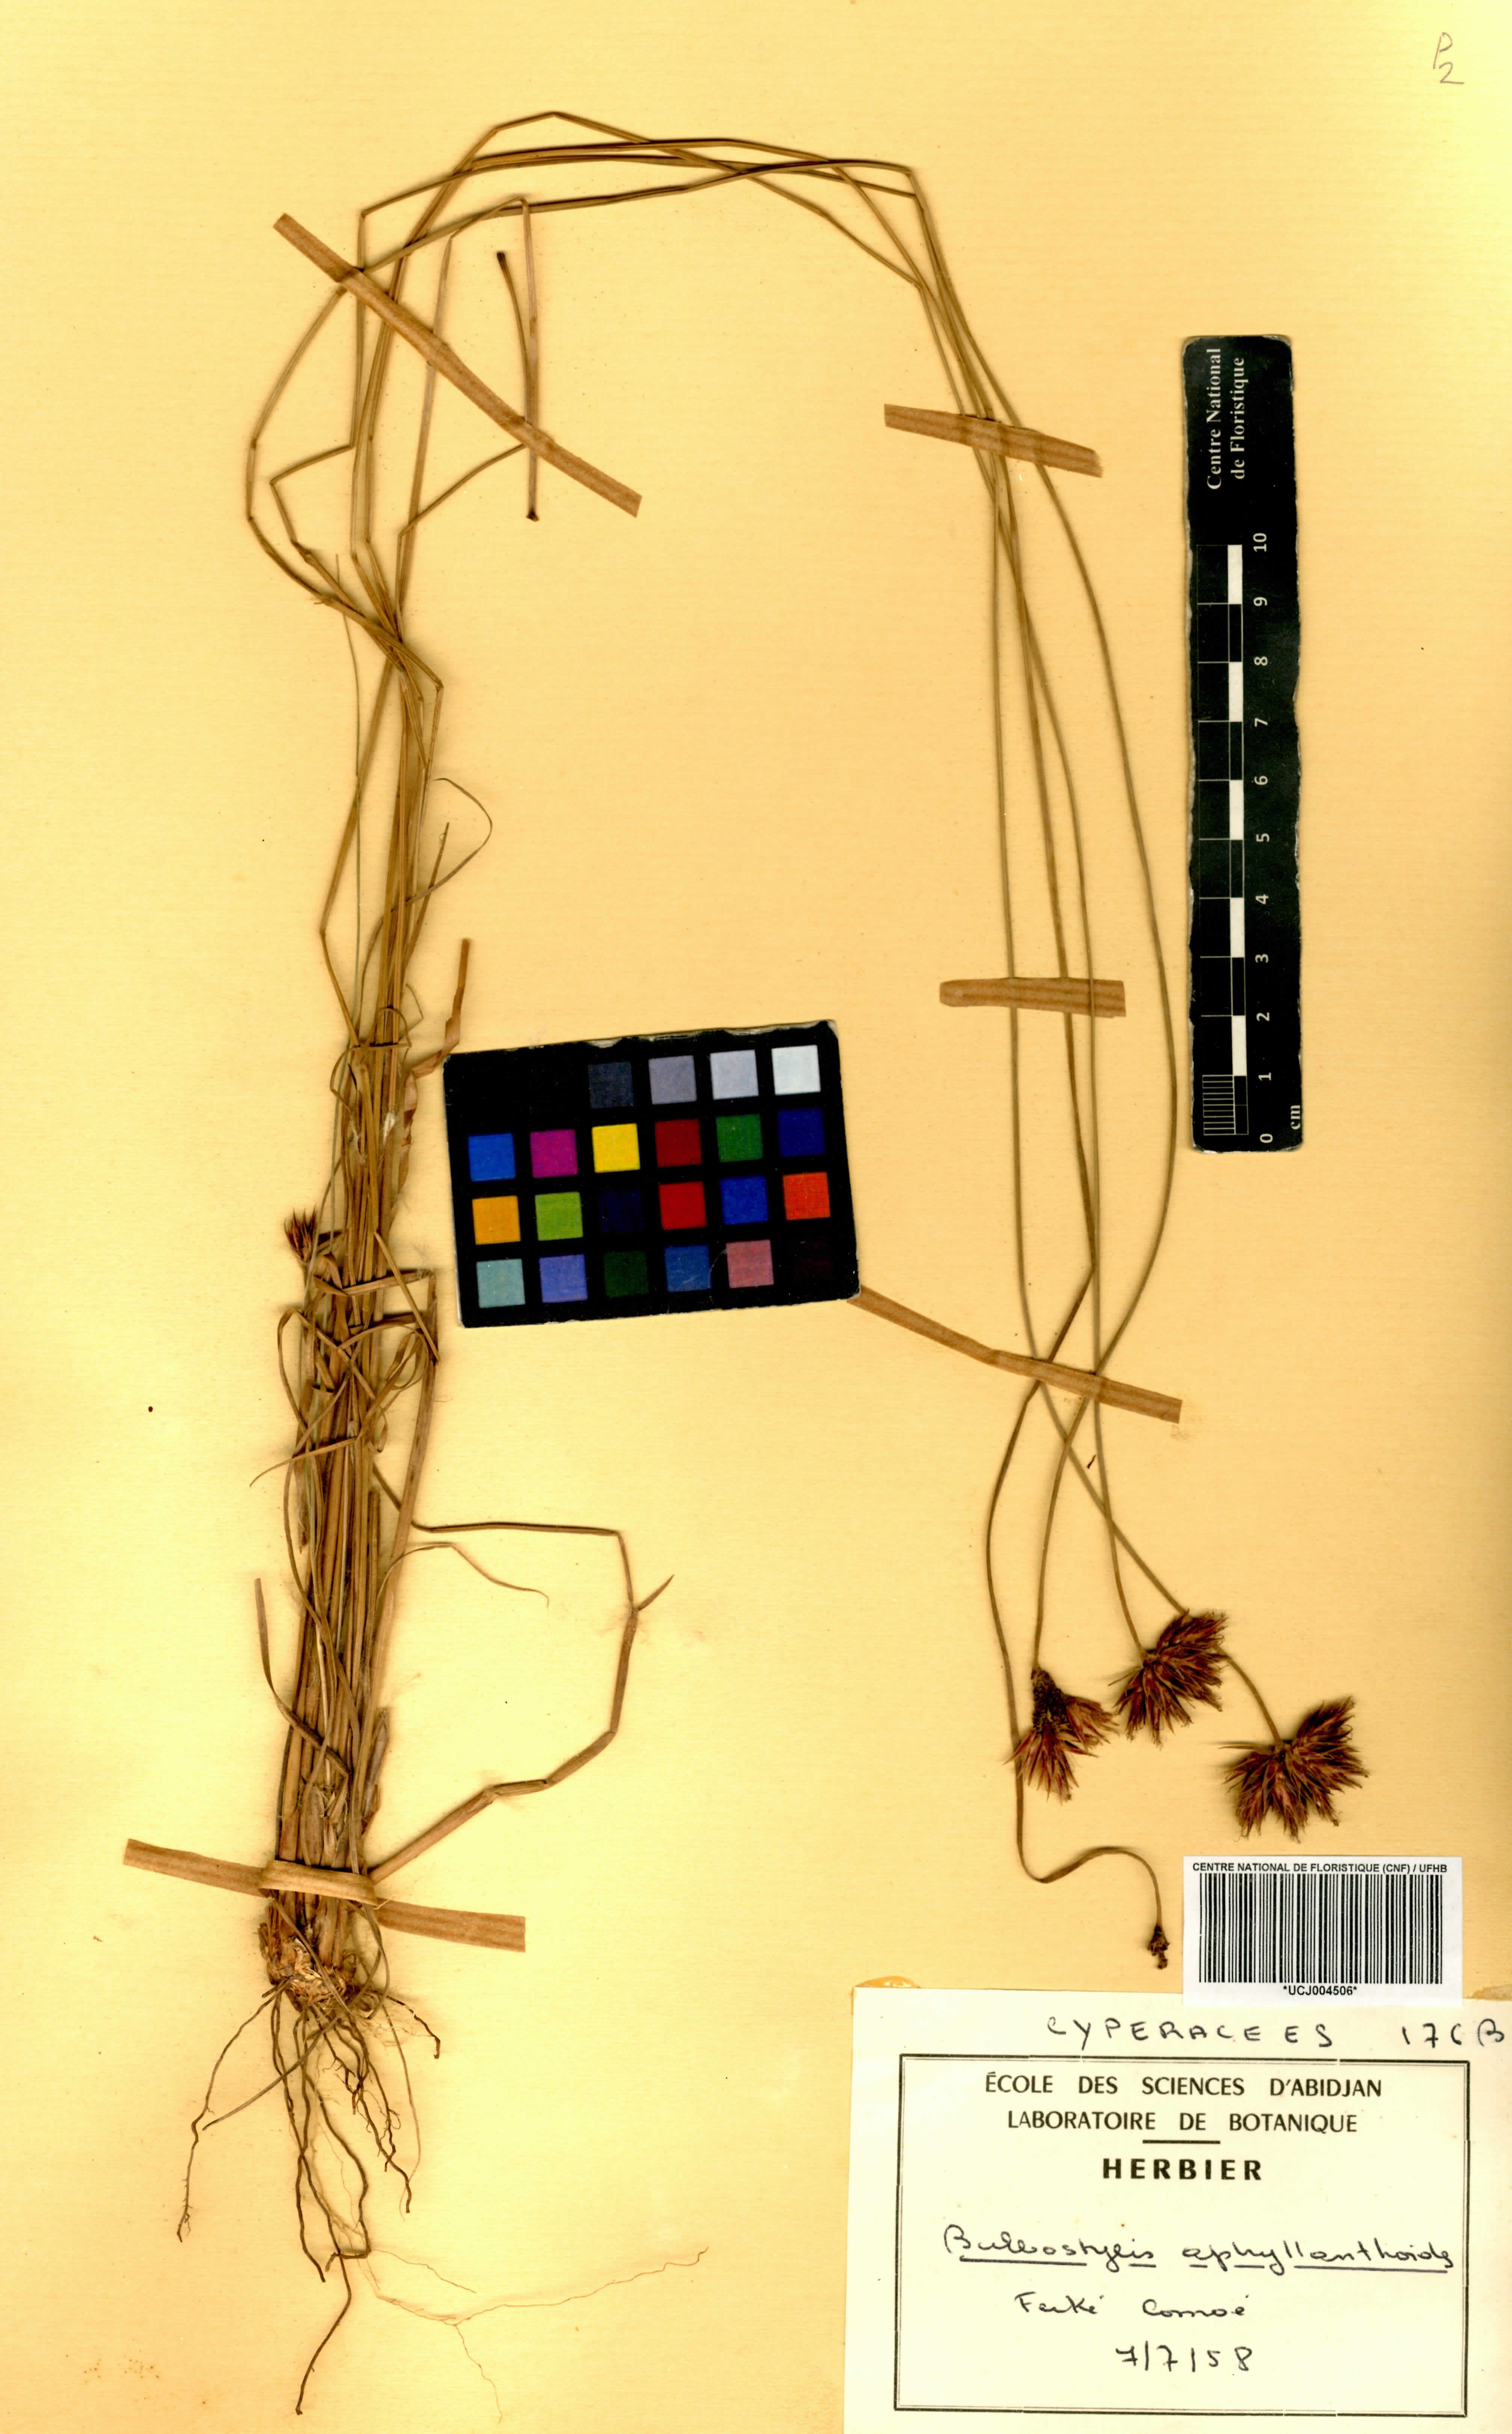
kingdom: Plantae
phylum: Tracheophyta
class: Liliopsida
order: Poales
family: Cyperaceae
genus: Bulbostylis
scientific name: Bulbostylis pilosa
